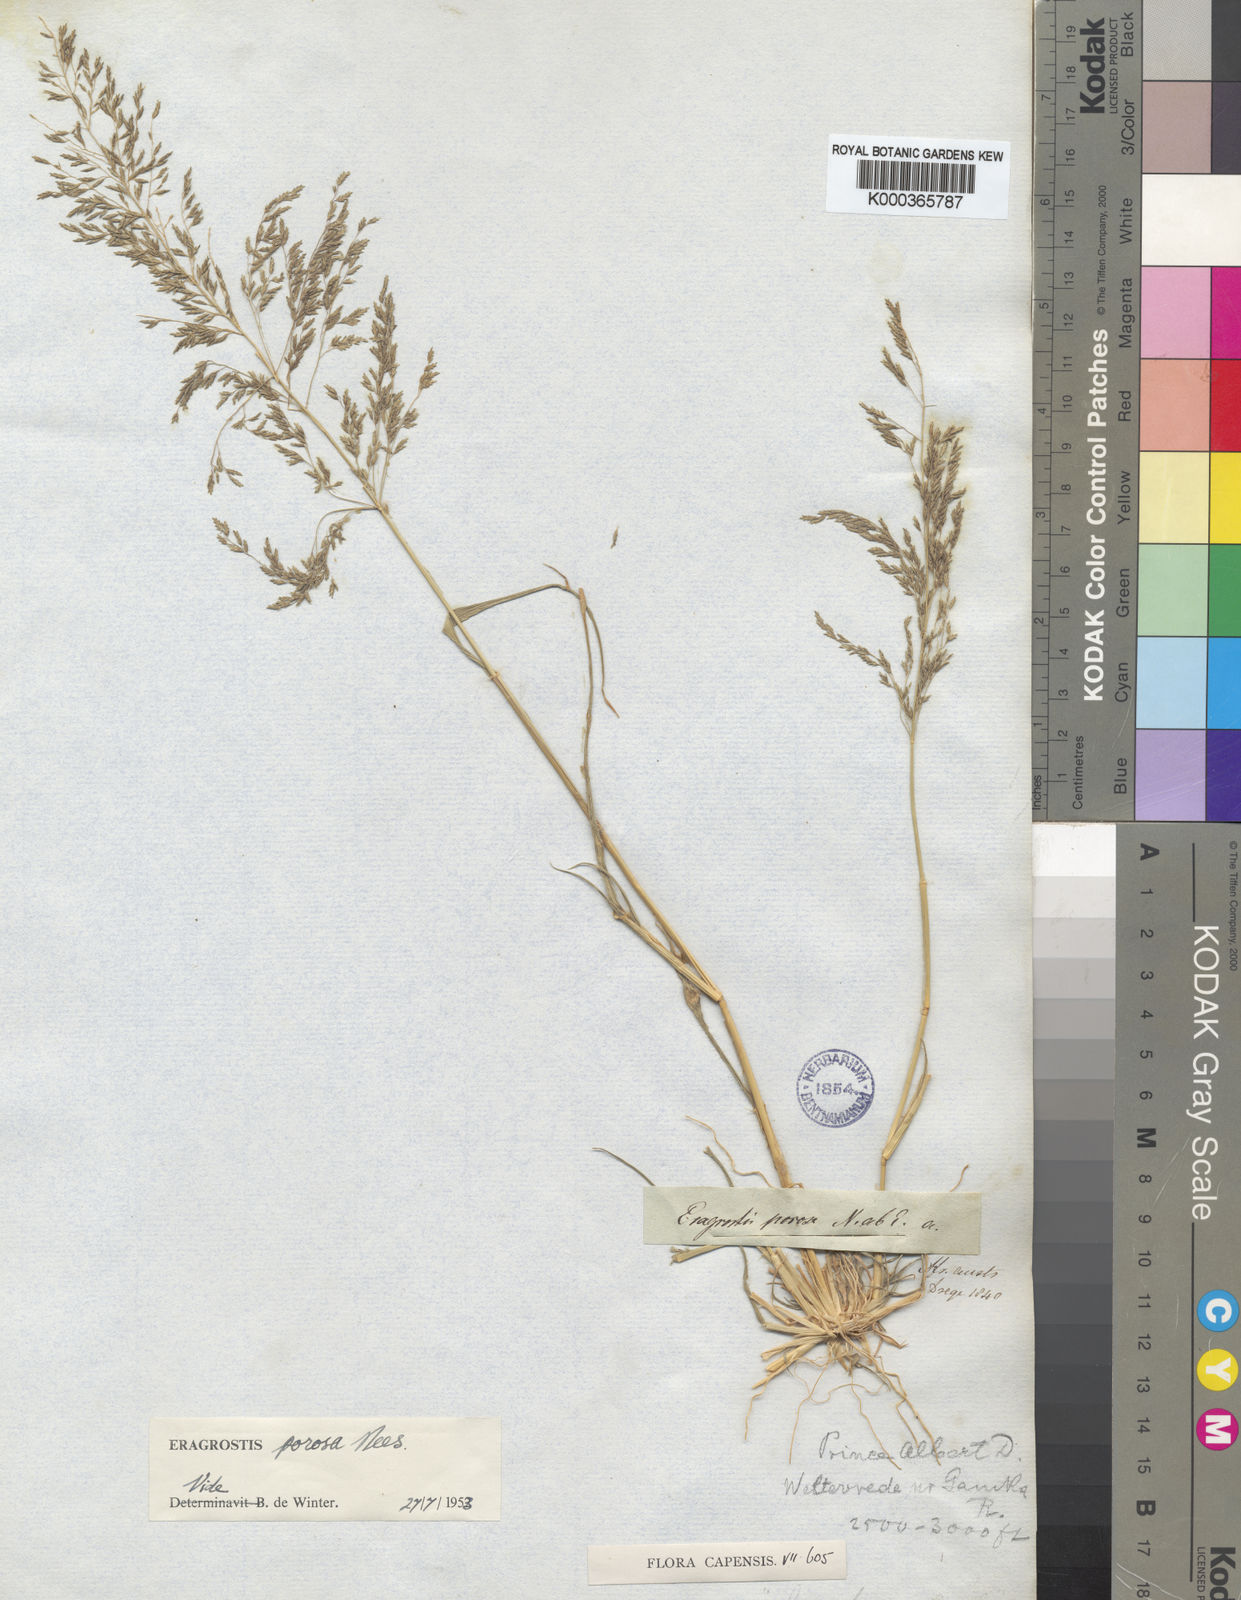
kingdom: Plantae
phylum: Tracheophyta
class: Liliopsida
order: Poales
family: Poaceae
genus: Eragrostis
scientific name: Eragrostis porosa
